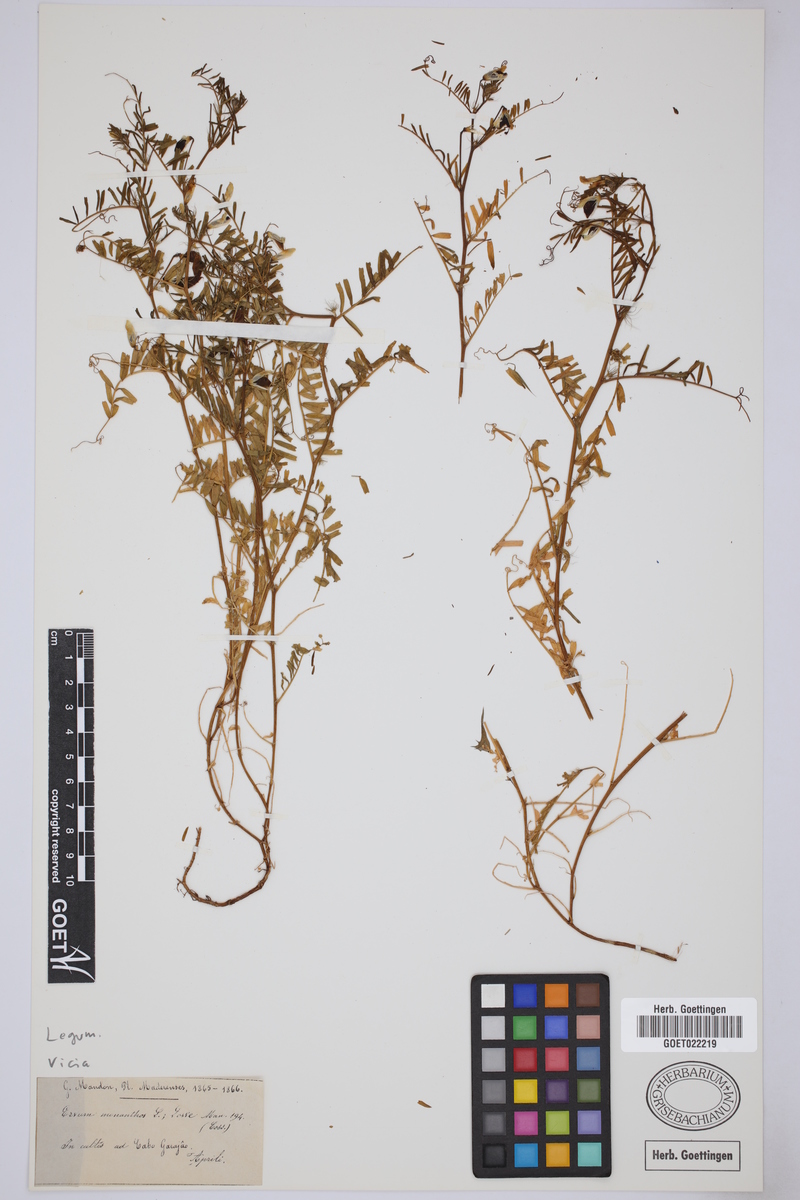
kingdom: Plantae
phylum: Tracheophyta
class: Magnoliopsida
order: Fabales
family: Fabaceae
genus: Vicia
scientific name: Vicia
